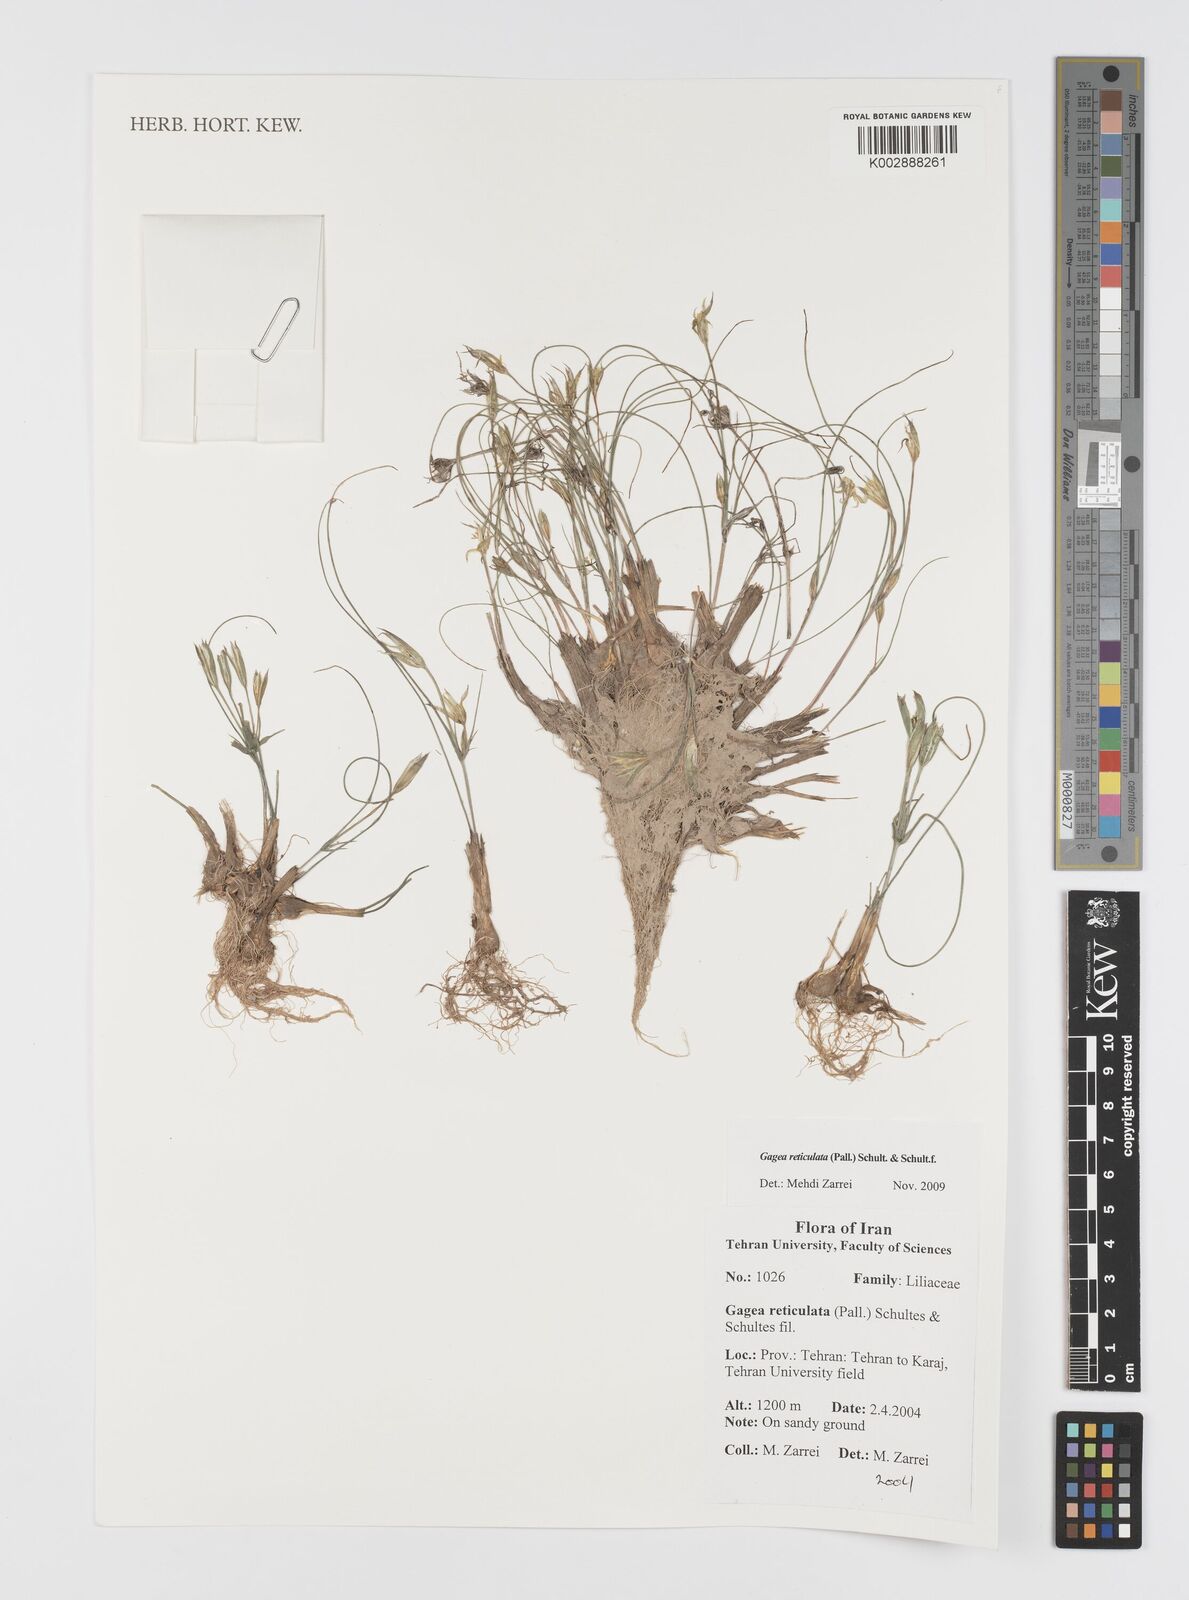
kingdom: Plantae
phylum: Tracheophyta
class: Liliopsida
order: Liliales
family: Liliaceae
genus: Gagea
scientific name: Gagea reticulata
